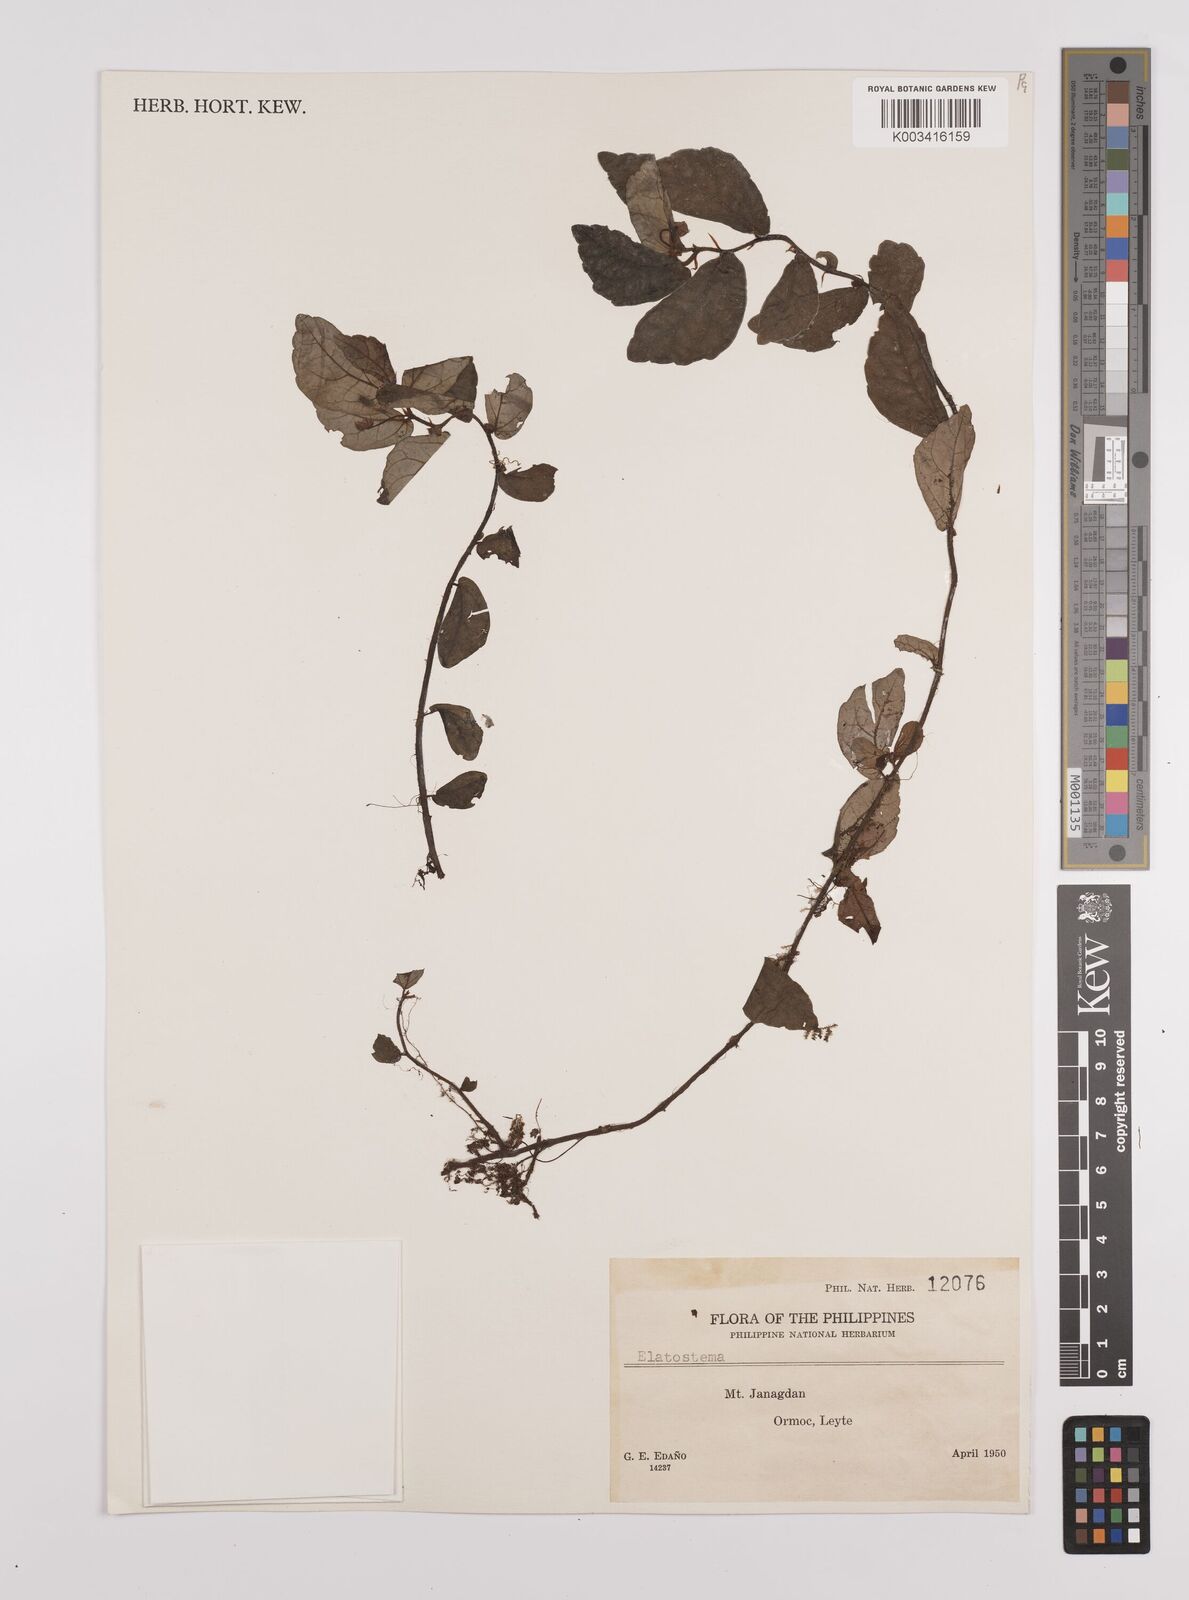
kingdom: Plantae
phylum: Tracheophyta
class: Magnoliopsida
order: Rosales
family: Urticaceae
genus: Elatostema
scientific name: Elatostema
